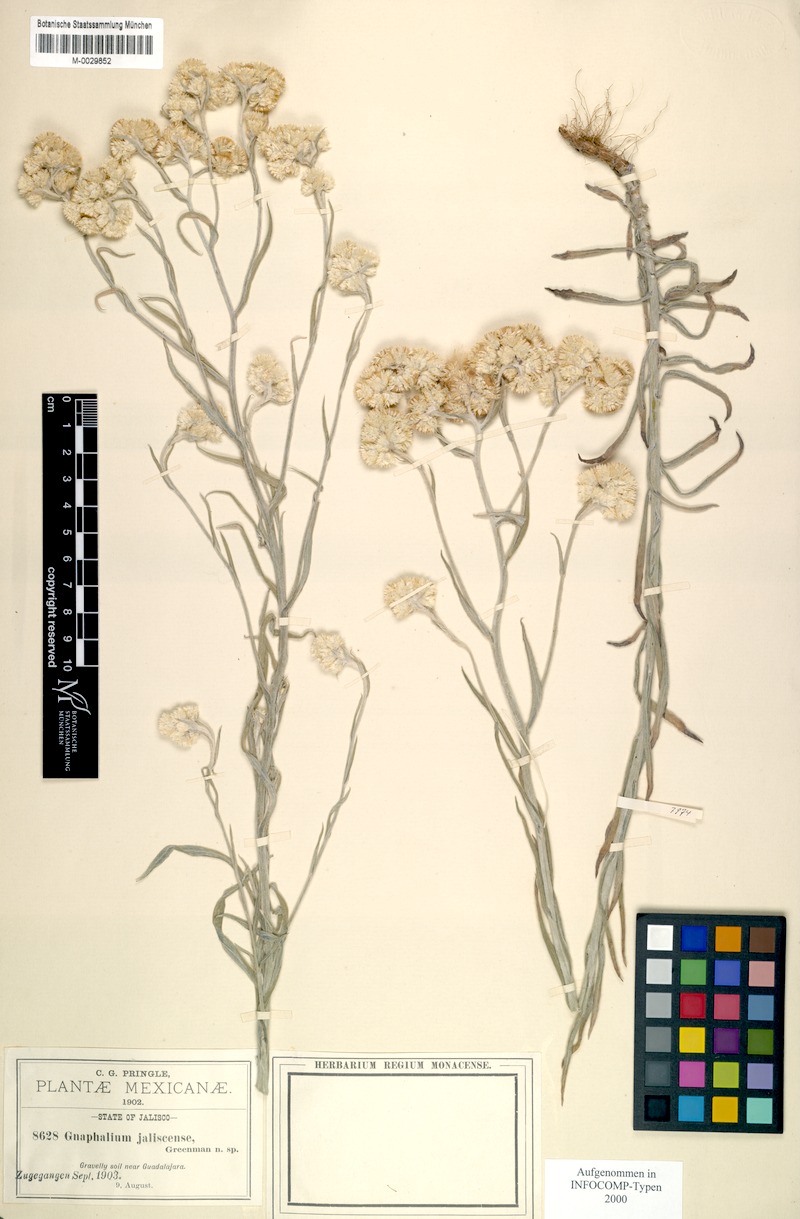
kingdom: Plantae
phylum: Tracheophyta
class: Magnoliopsida
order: Asterales
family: Asteraceae
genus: Pseudognaphalium
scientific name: Pseudognaphalium jaliscense
